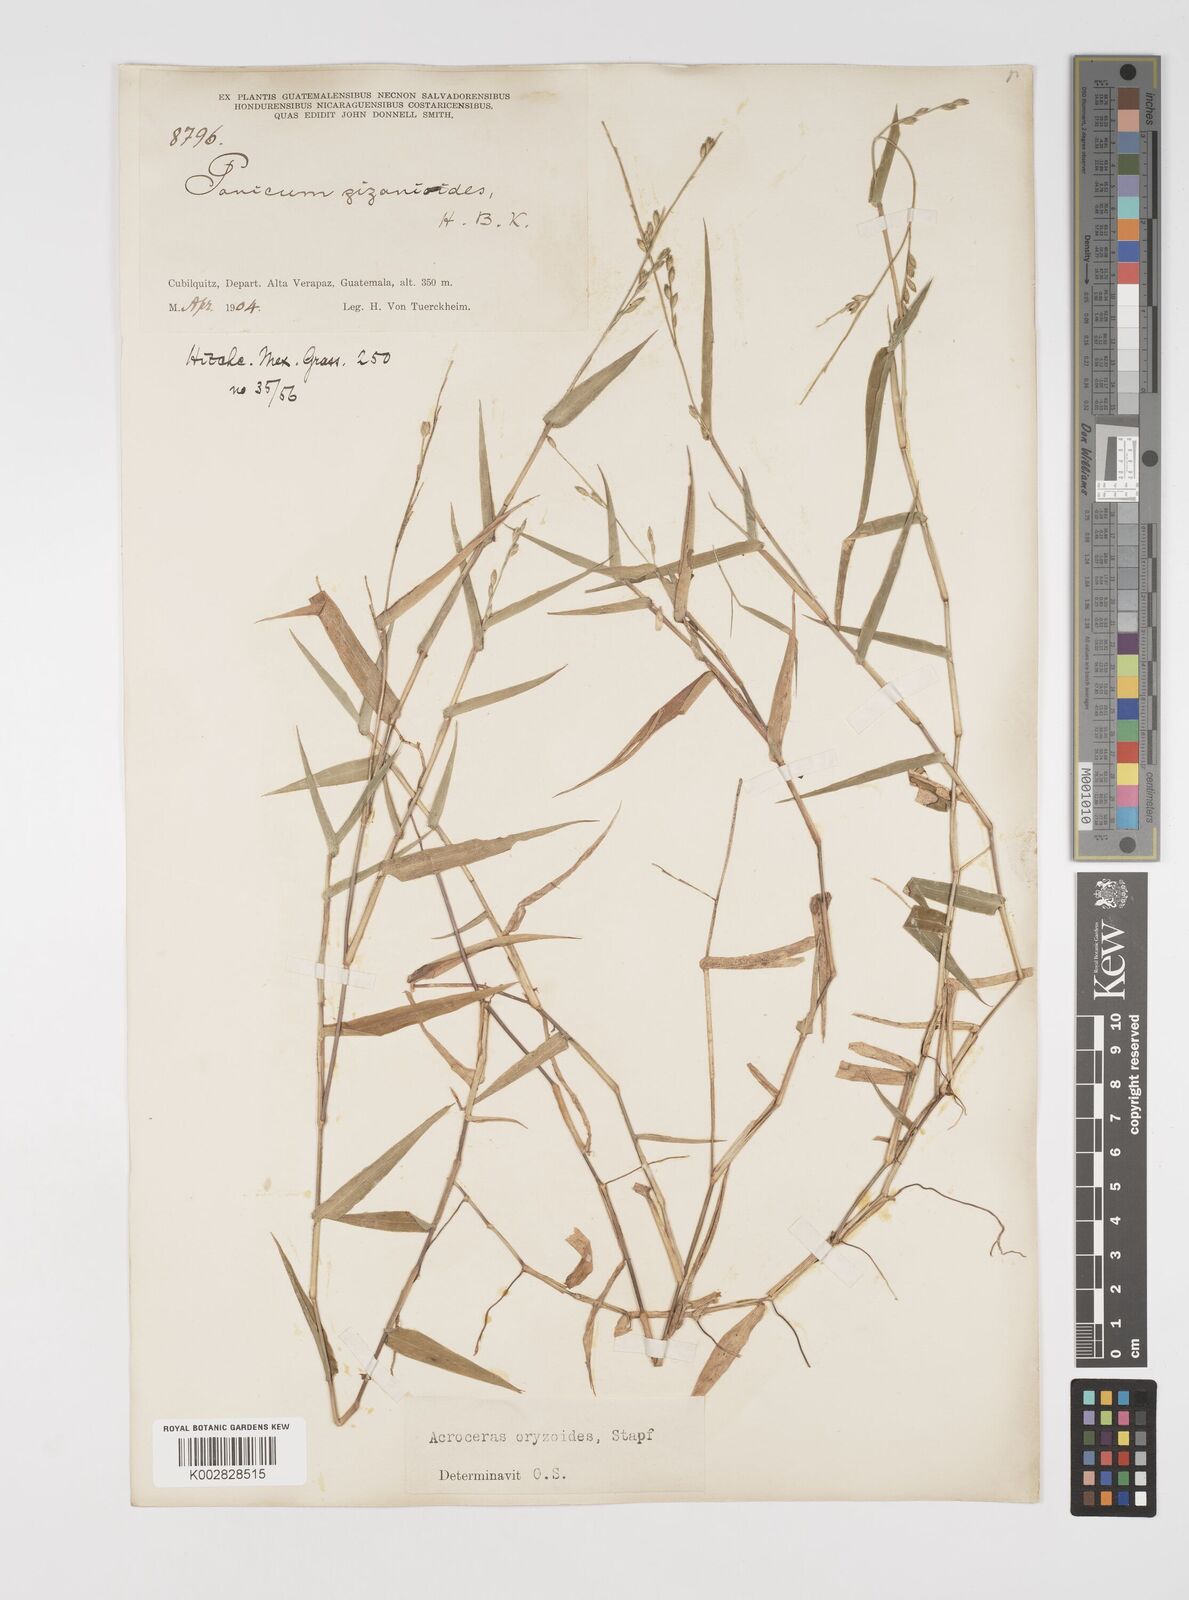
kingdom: Plantae
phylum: Tracheophyta
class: Liliopsida
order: Poales
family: Poaceae
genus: Acroceras
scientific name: Acroceras zizanioides
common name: Oat grass
